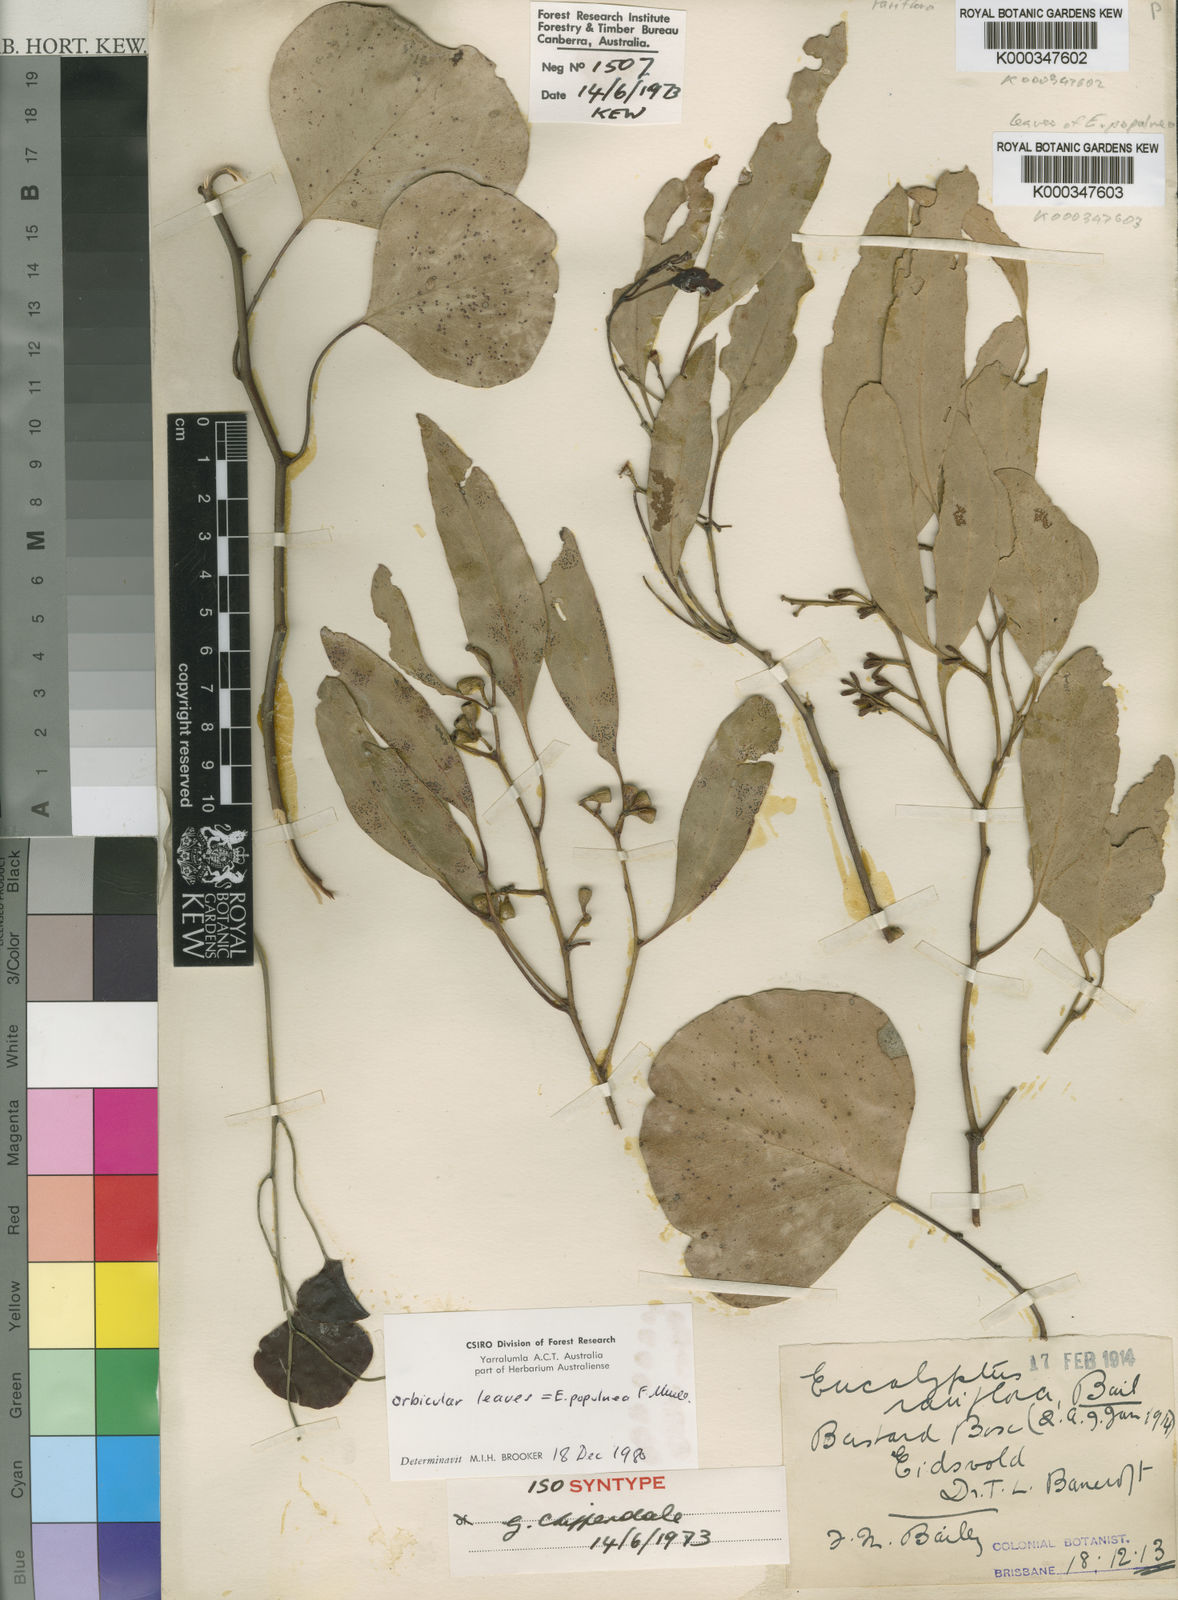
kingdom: Plantae
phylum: Tracheophyta
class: Magnoliopsida
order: Myrtales
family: Myrtaceae
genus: Eucalyptus
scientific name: Eucalyptus rariflora
